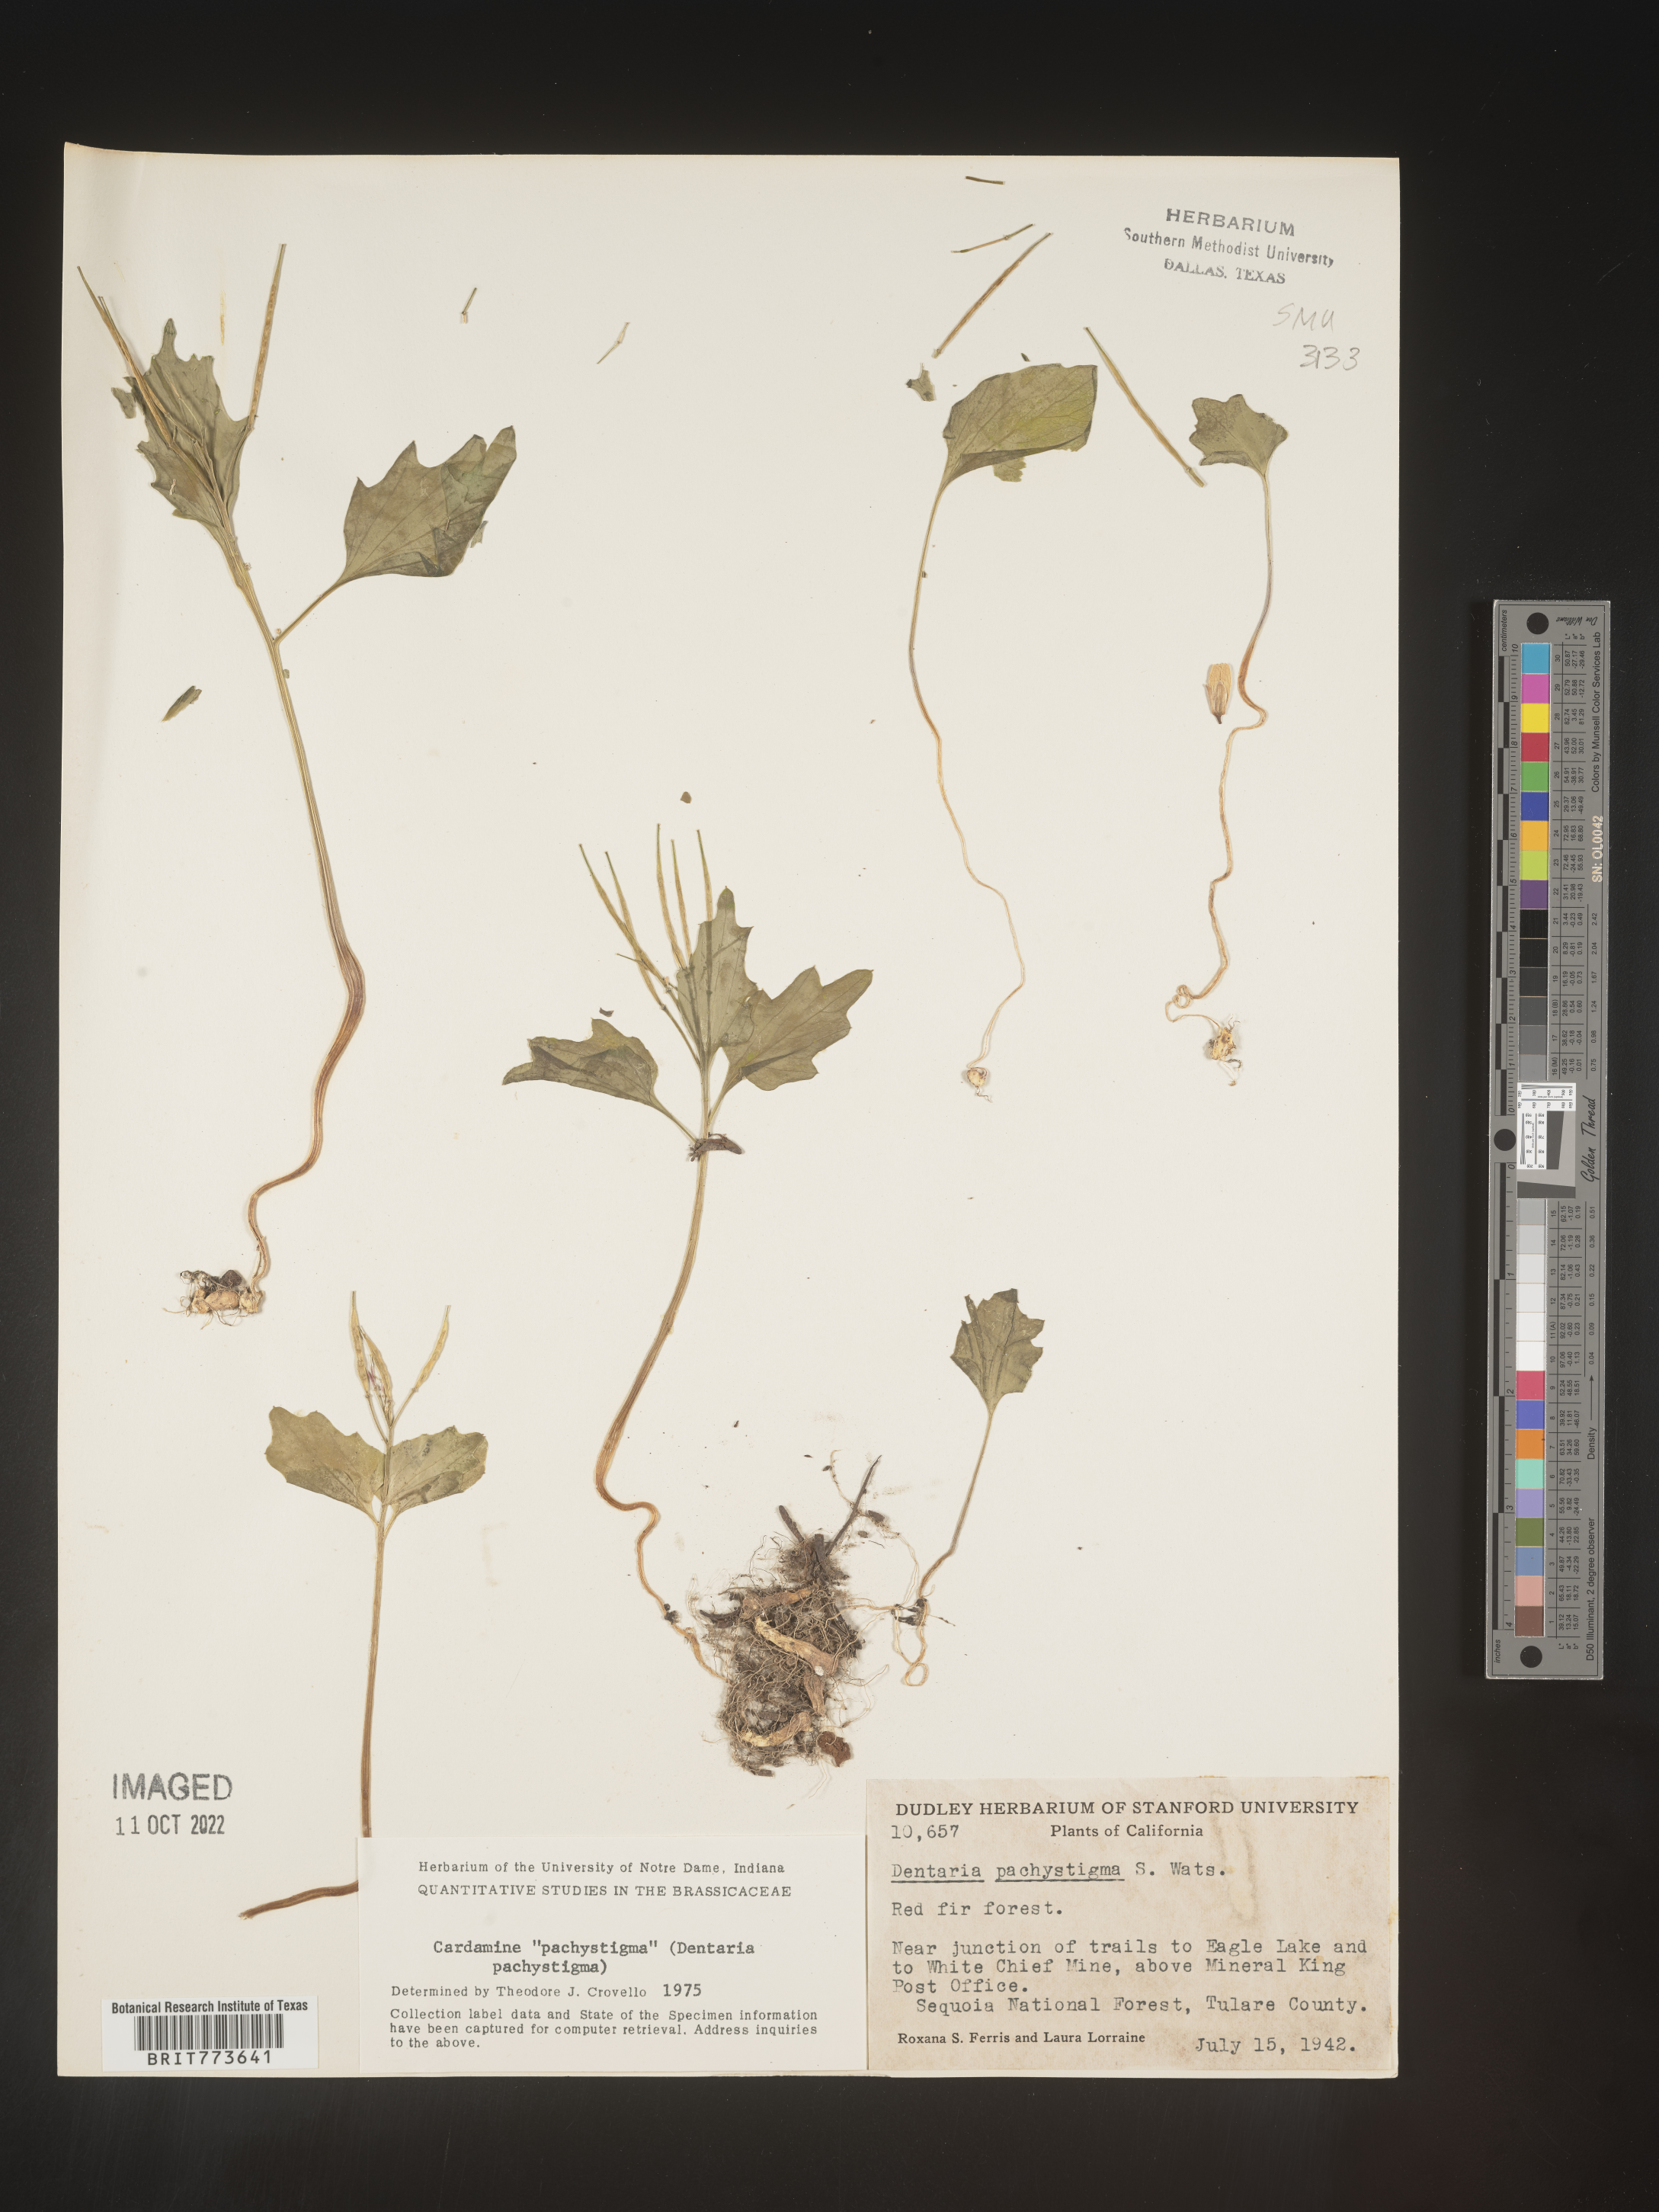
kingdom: Plantae
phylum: Tracheophyta
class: Magnoliopsida
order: Brassicales
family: Brassicaceae
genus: Cardamine
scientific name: Cardamine
